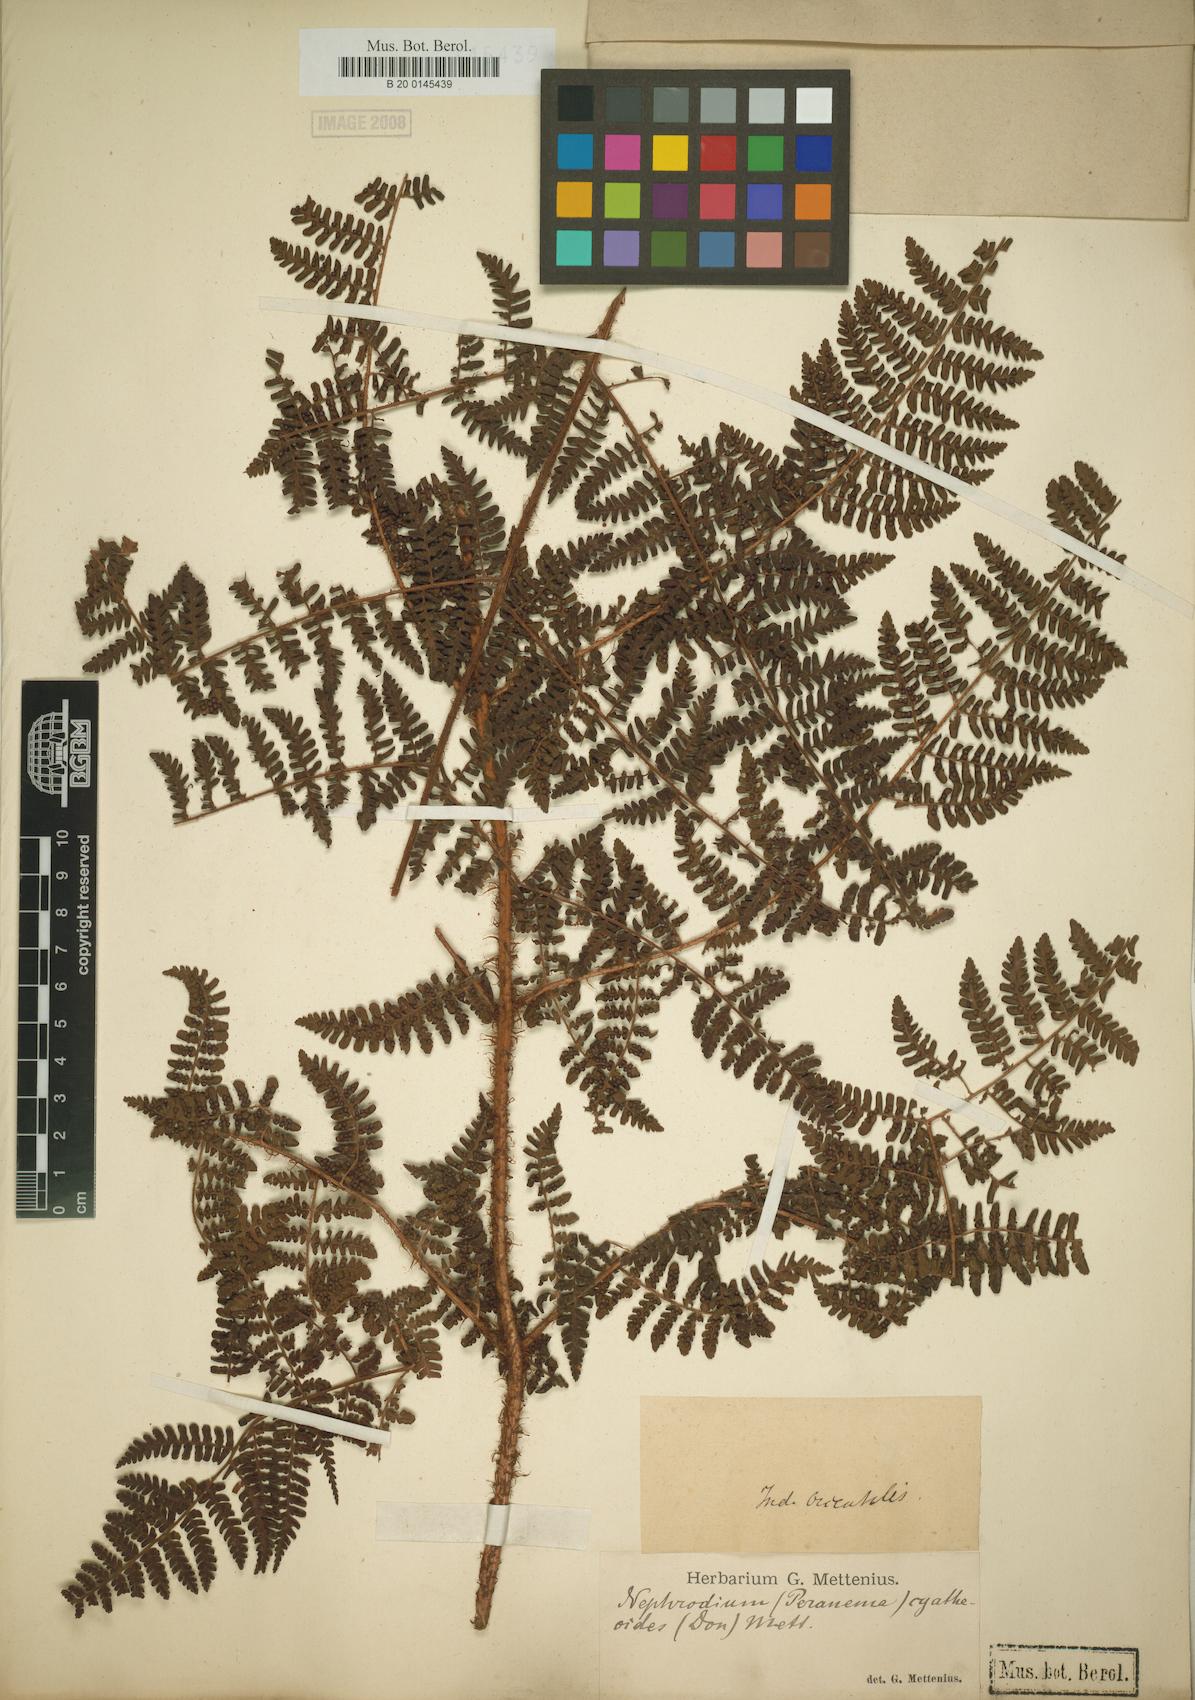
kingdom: Plantae
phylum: Tracheophyta
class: Polypodiopsida
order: Polypodiales
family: Dryopteridaceae
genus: Dryopteris
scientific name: Dryopteris peranema
